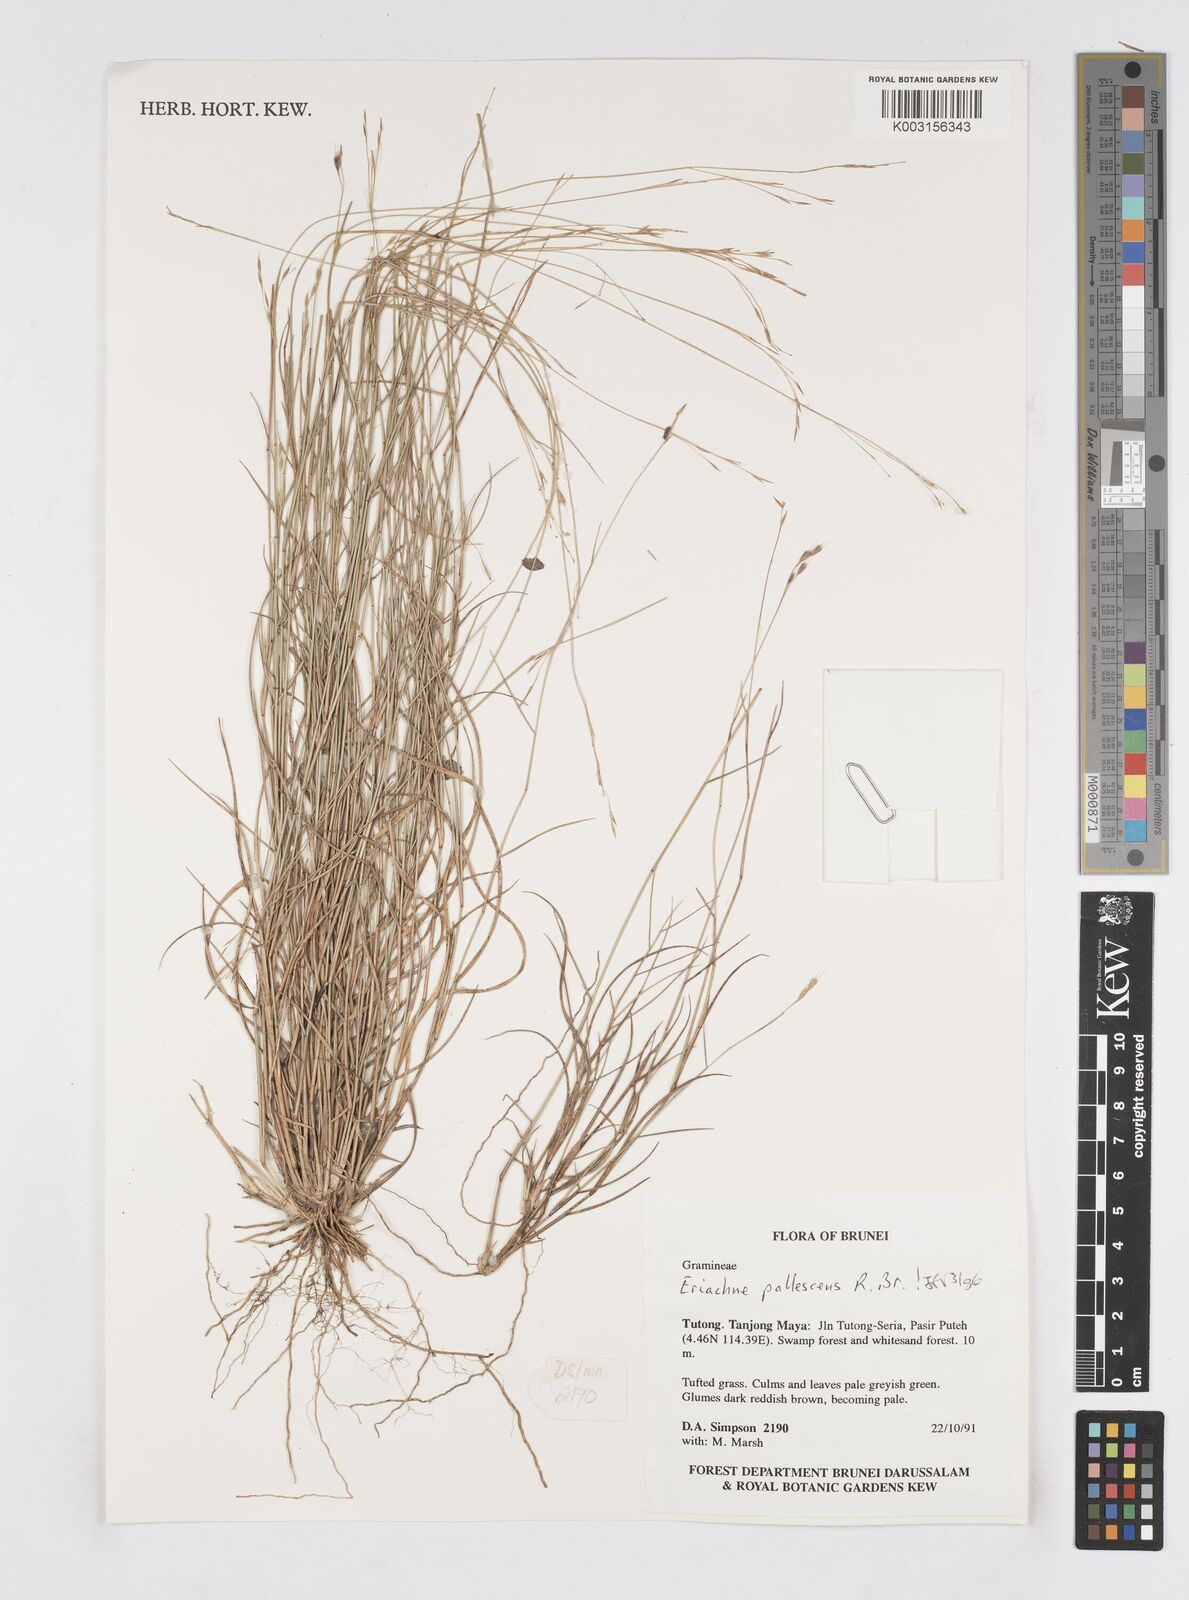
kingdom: Plantae
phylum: Tracheophyta
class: Liliopsida
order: Poales
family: Poaceae
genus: Eriachne
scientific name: Eriachne pallescens
